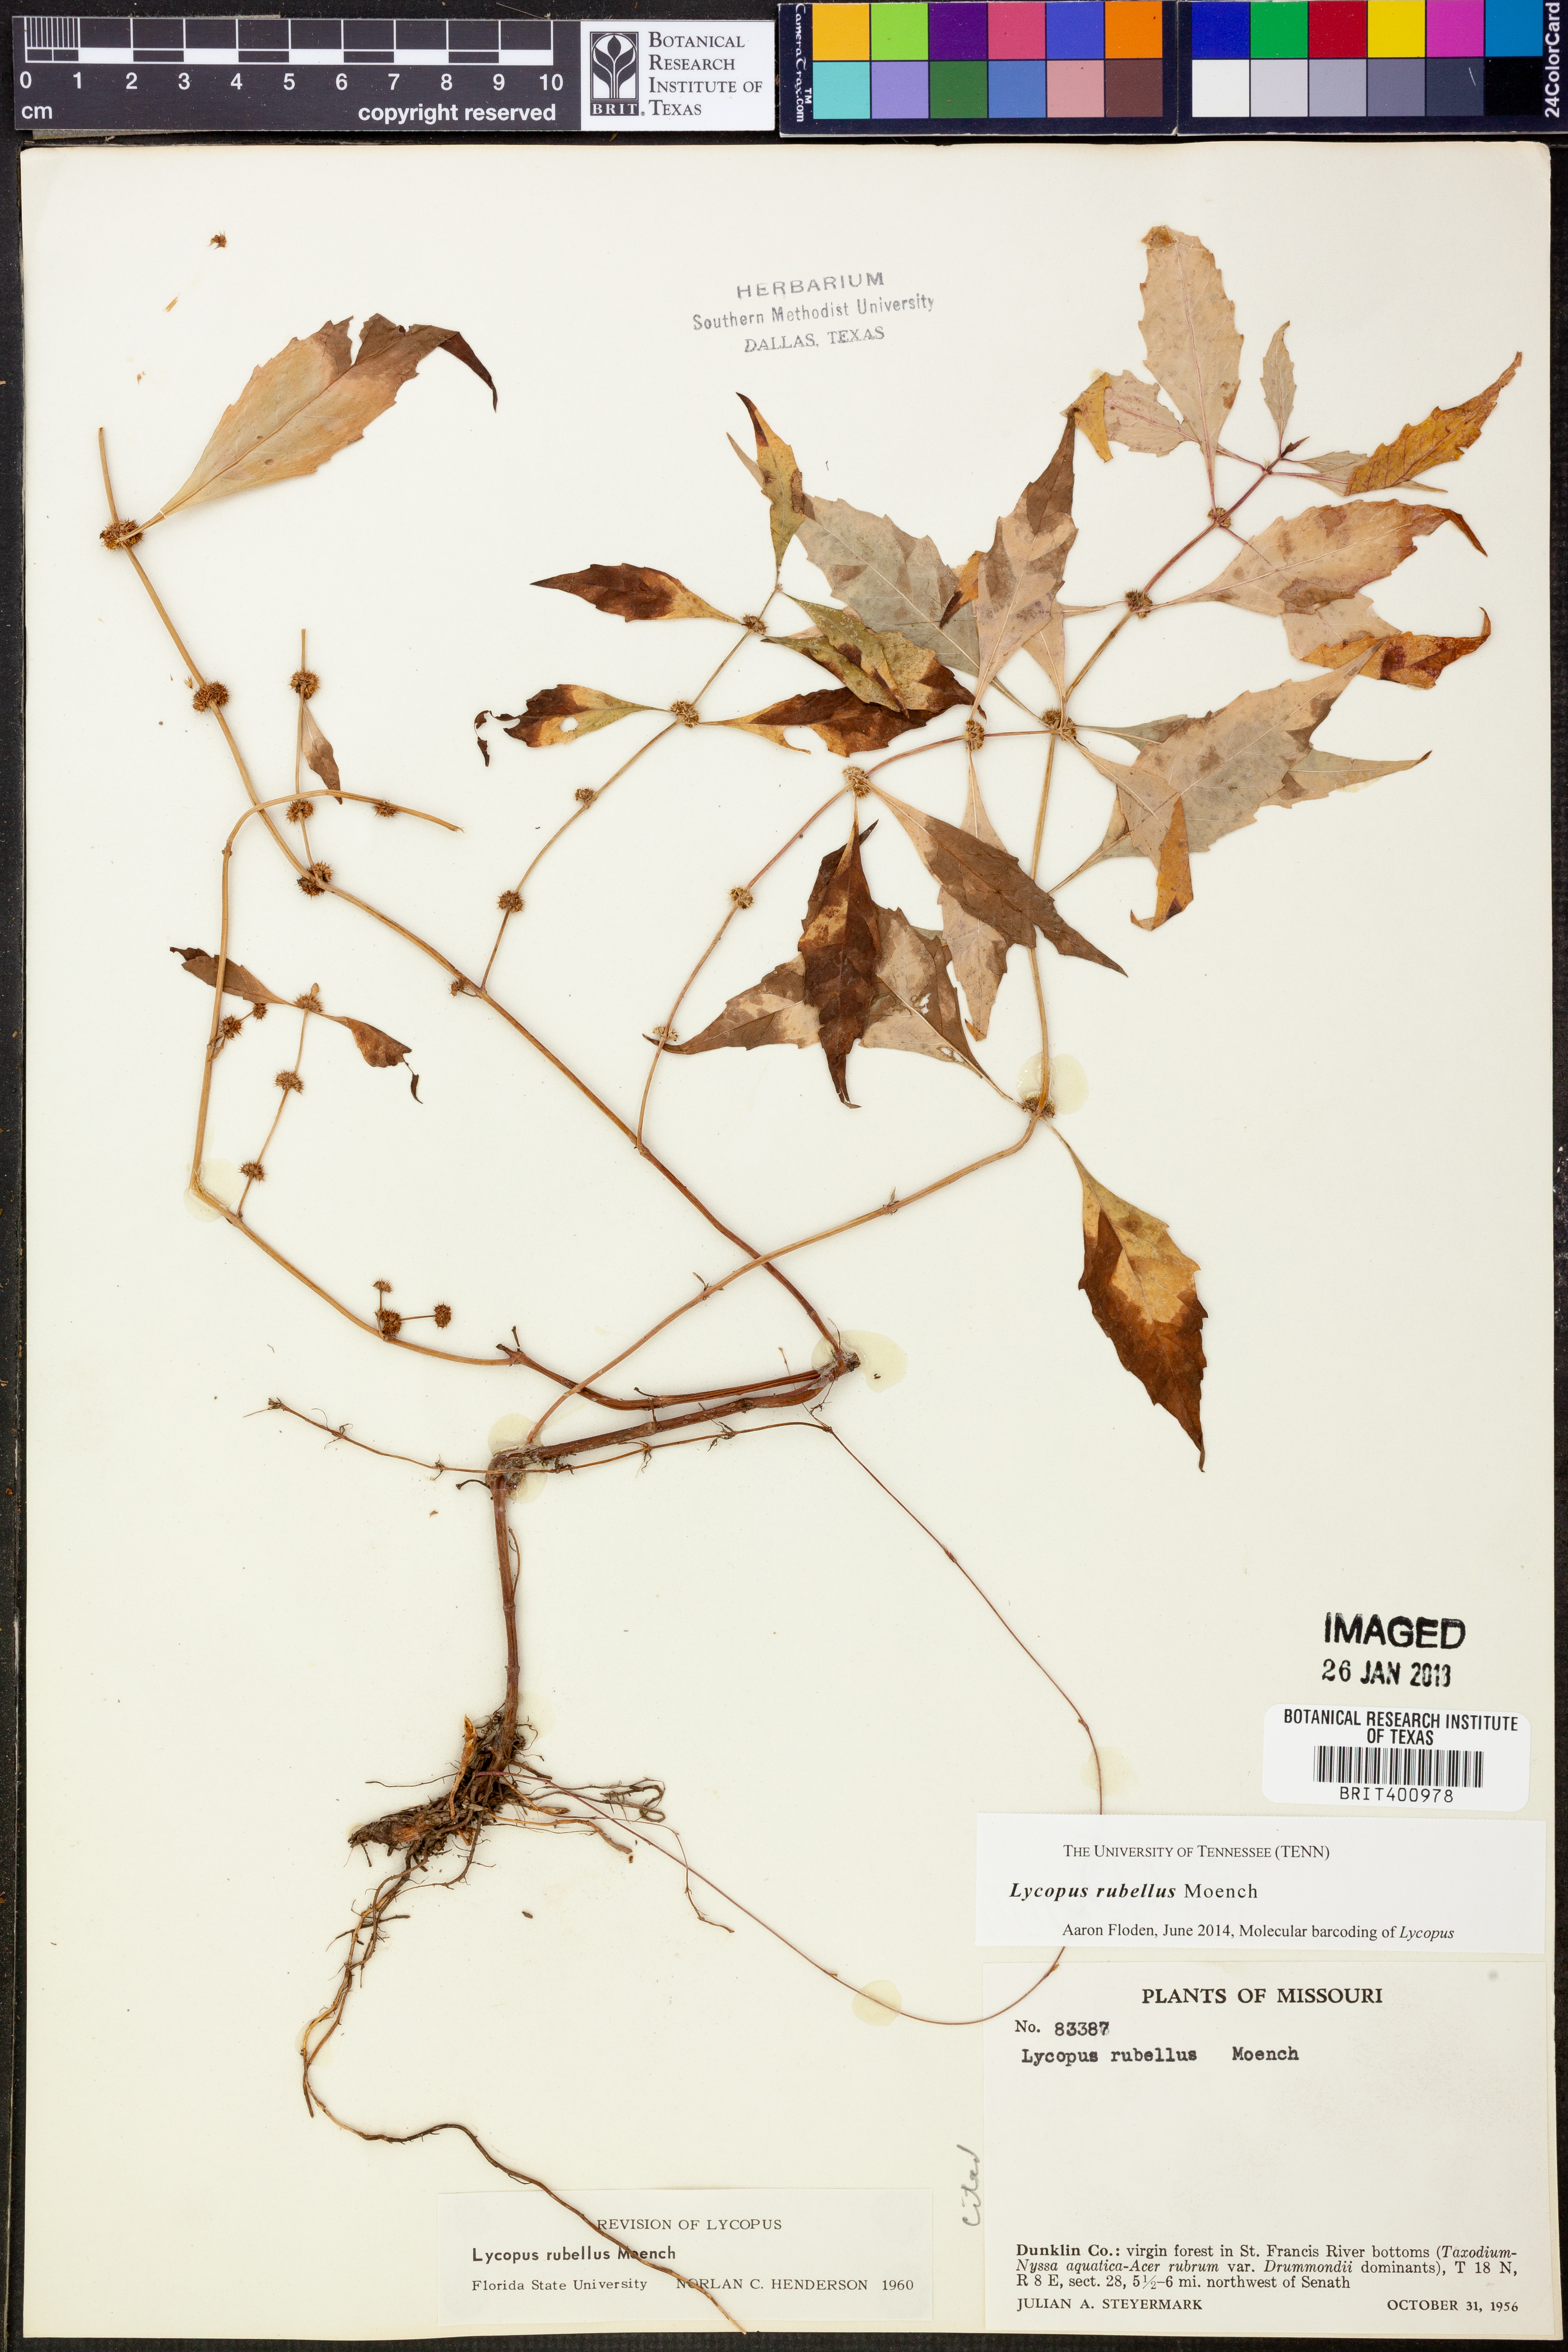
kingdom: Plantae
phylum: Tracheophyta
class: Magnoliopsida
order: Lamiales
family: Lamiaceae
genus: Lycopus
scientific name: Lycopus rubellus
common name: Stalked bugleweed
